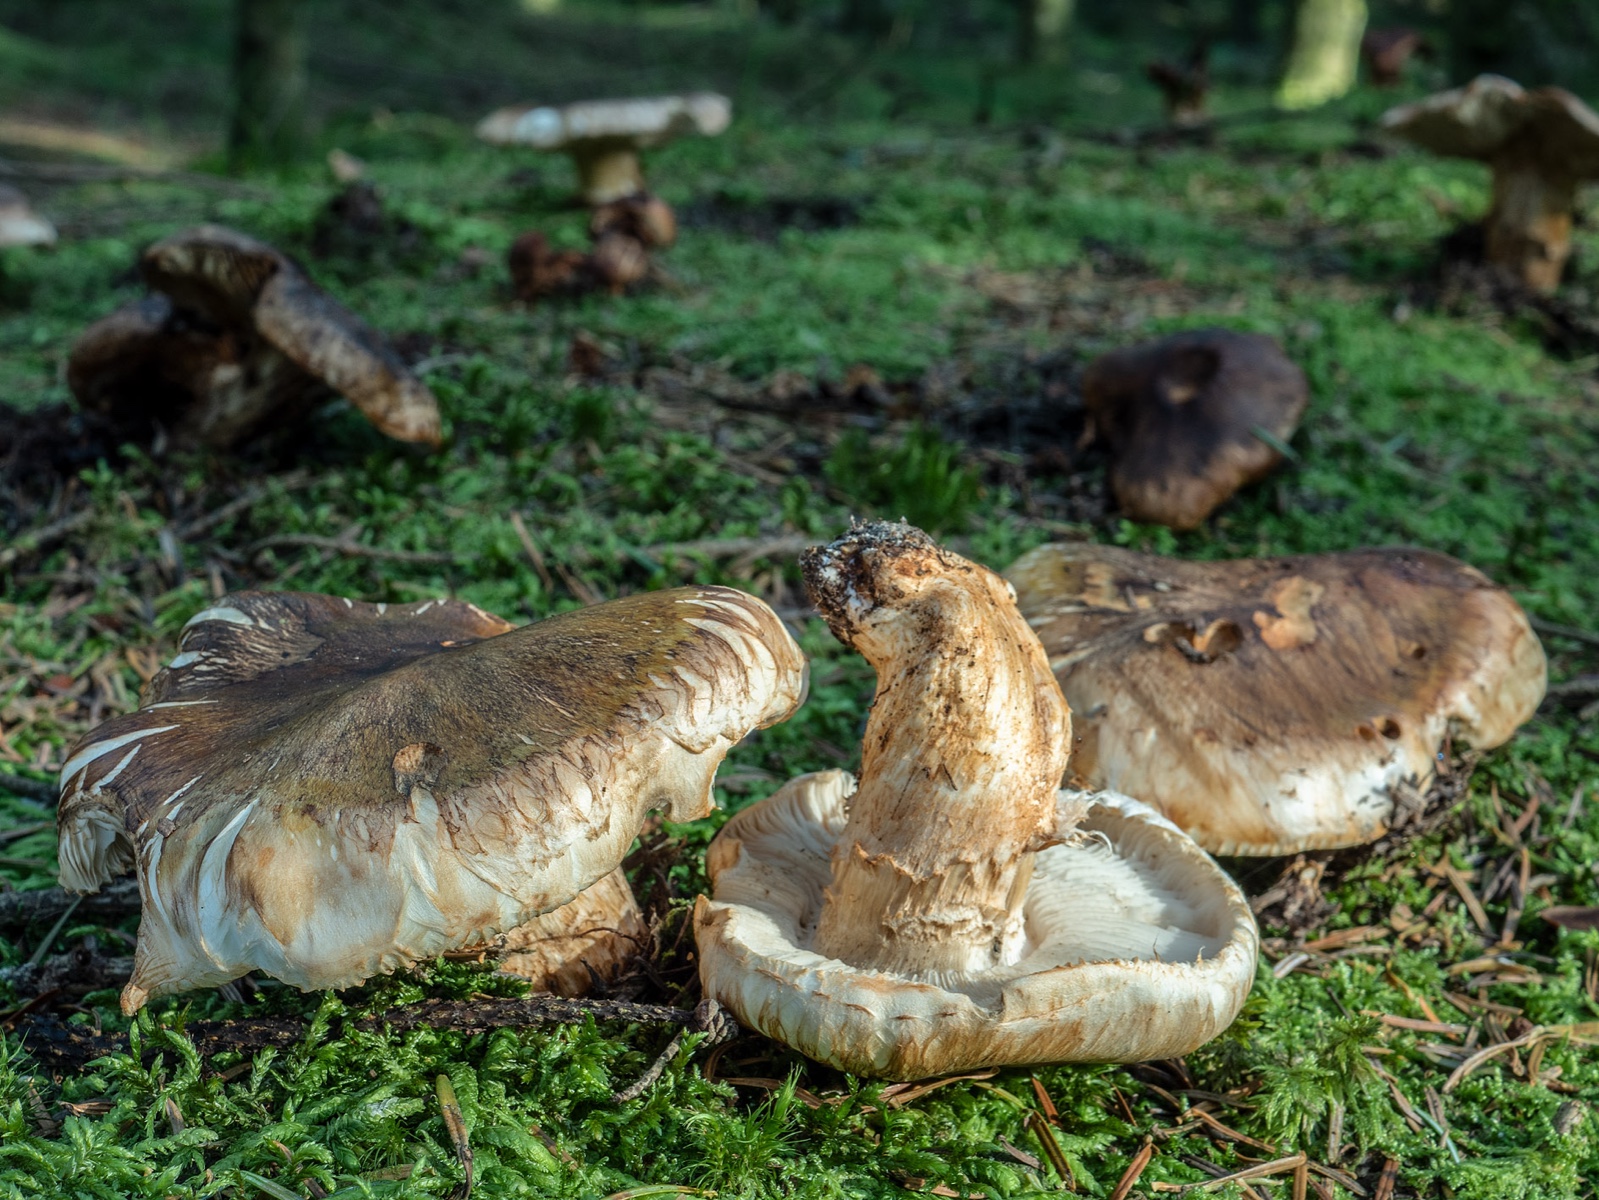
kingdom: Fungi
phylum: Basidiomycota
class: Agaricomycetes
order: Agaricales
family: Tricholomataceae
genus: Tricholoma
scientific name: Tricholoma focale
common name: halsbånd-ridderhat
